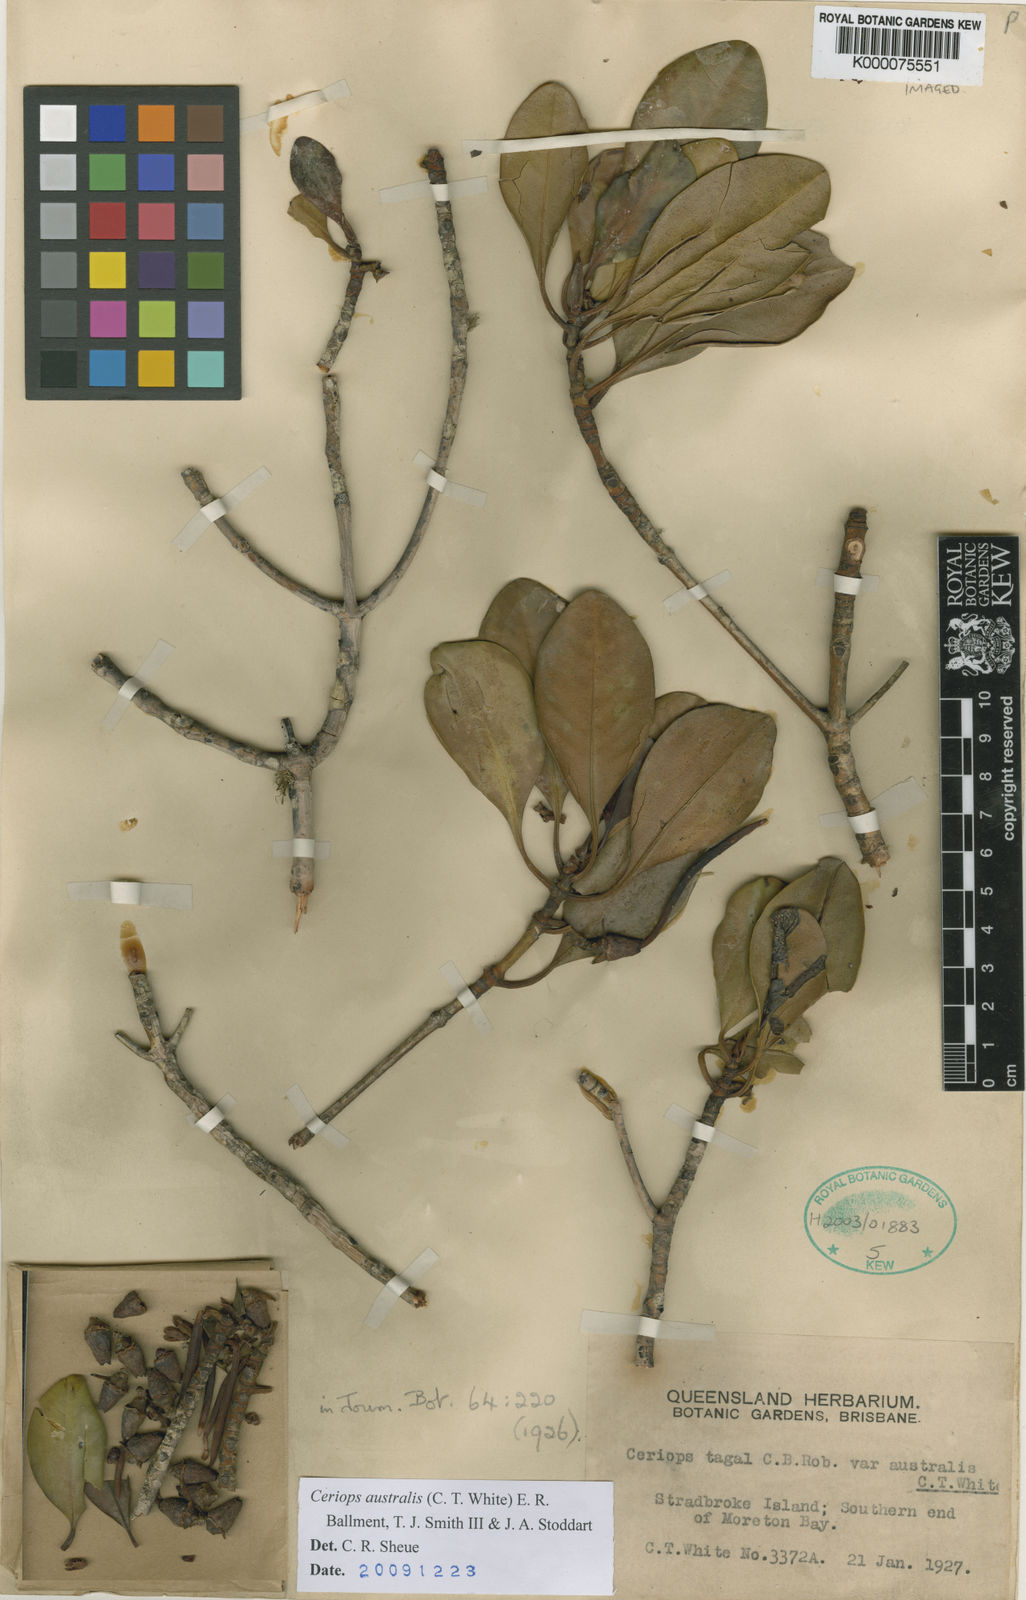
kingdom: Plantae
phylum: Tracheophyta
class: Magnoliopsida
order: Malpighiales
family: Rhizophoraceae
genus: Ceriops
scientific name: Ceriops australis
